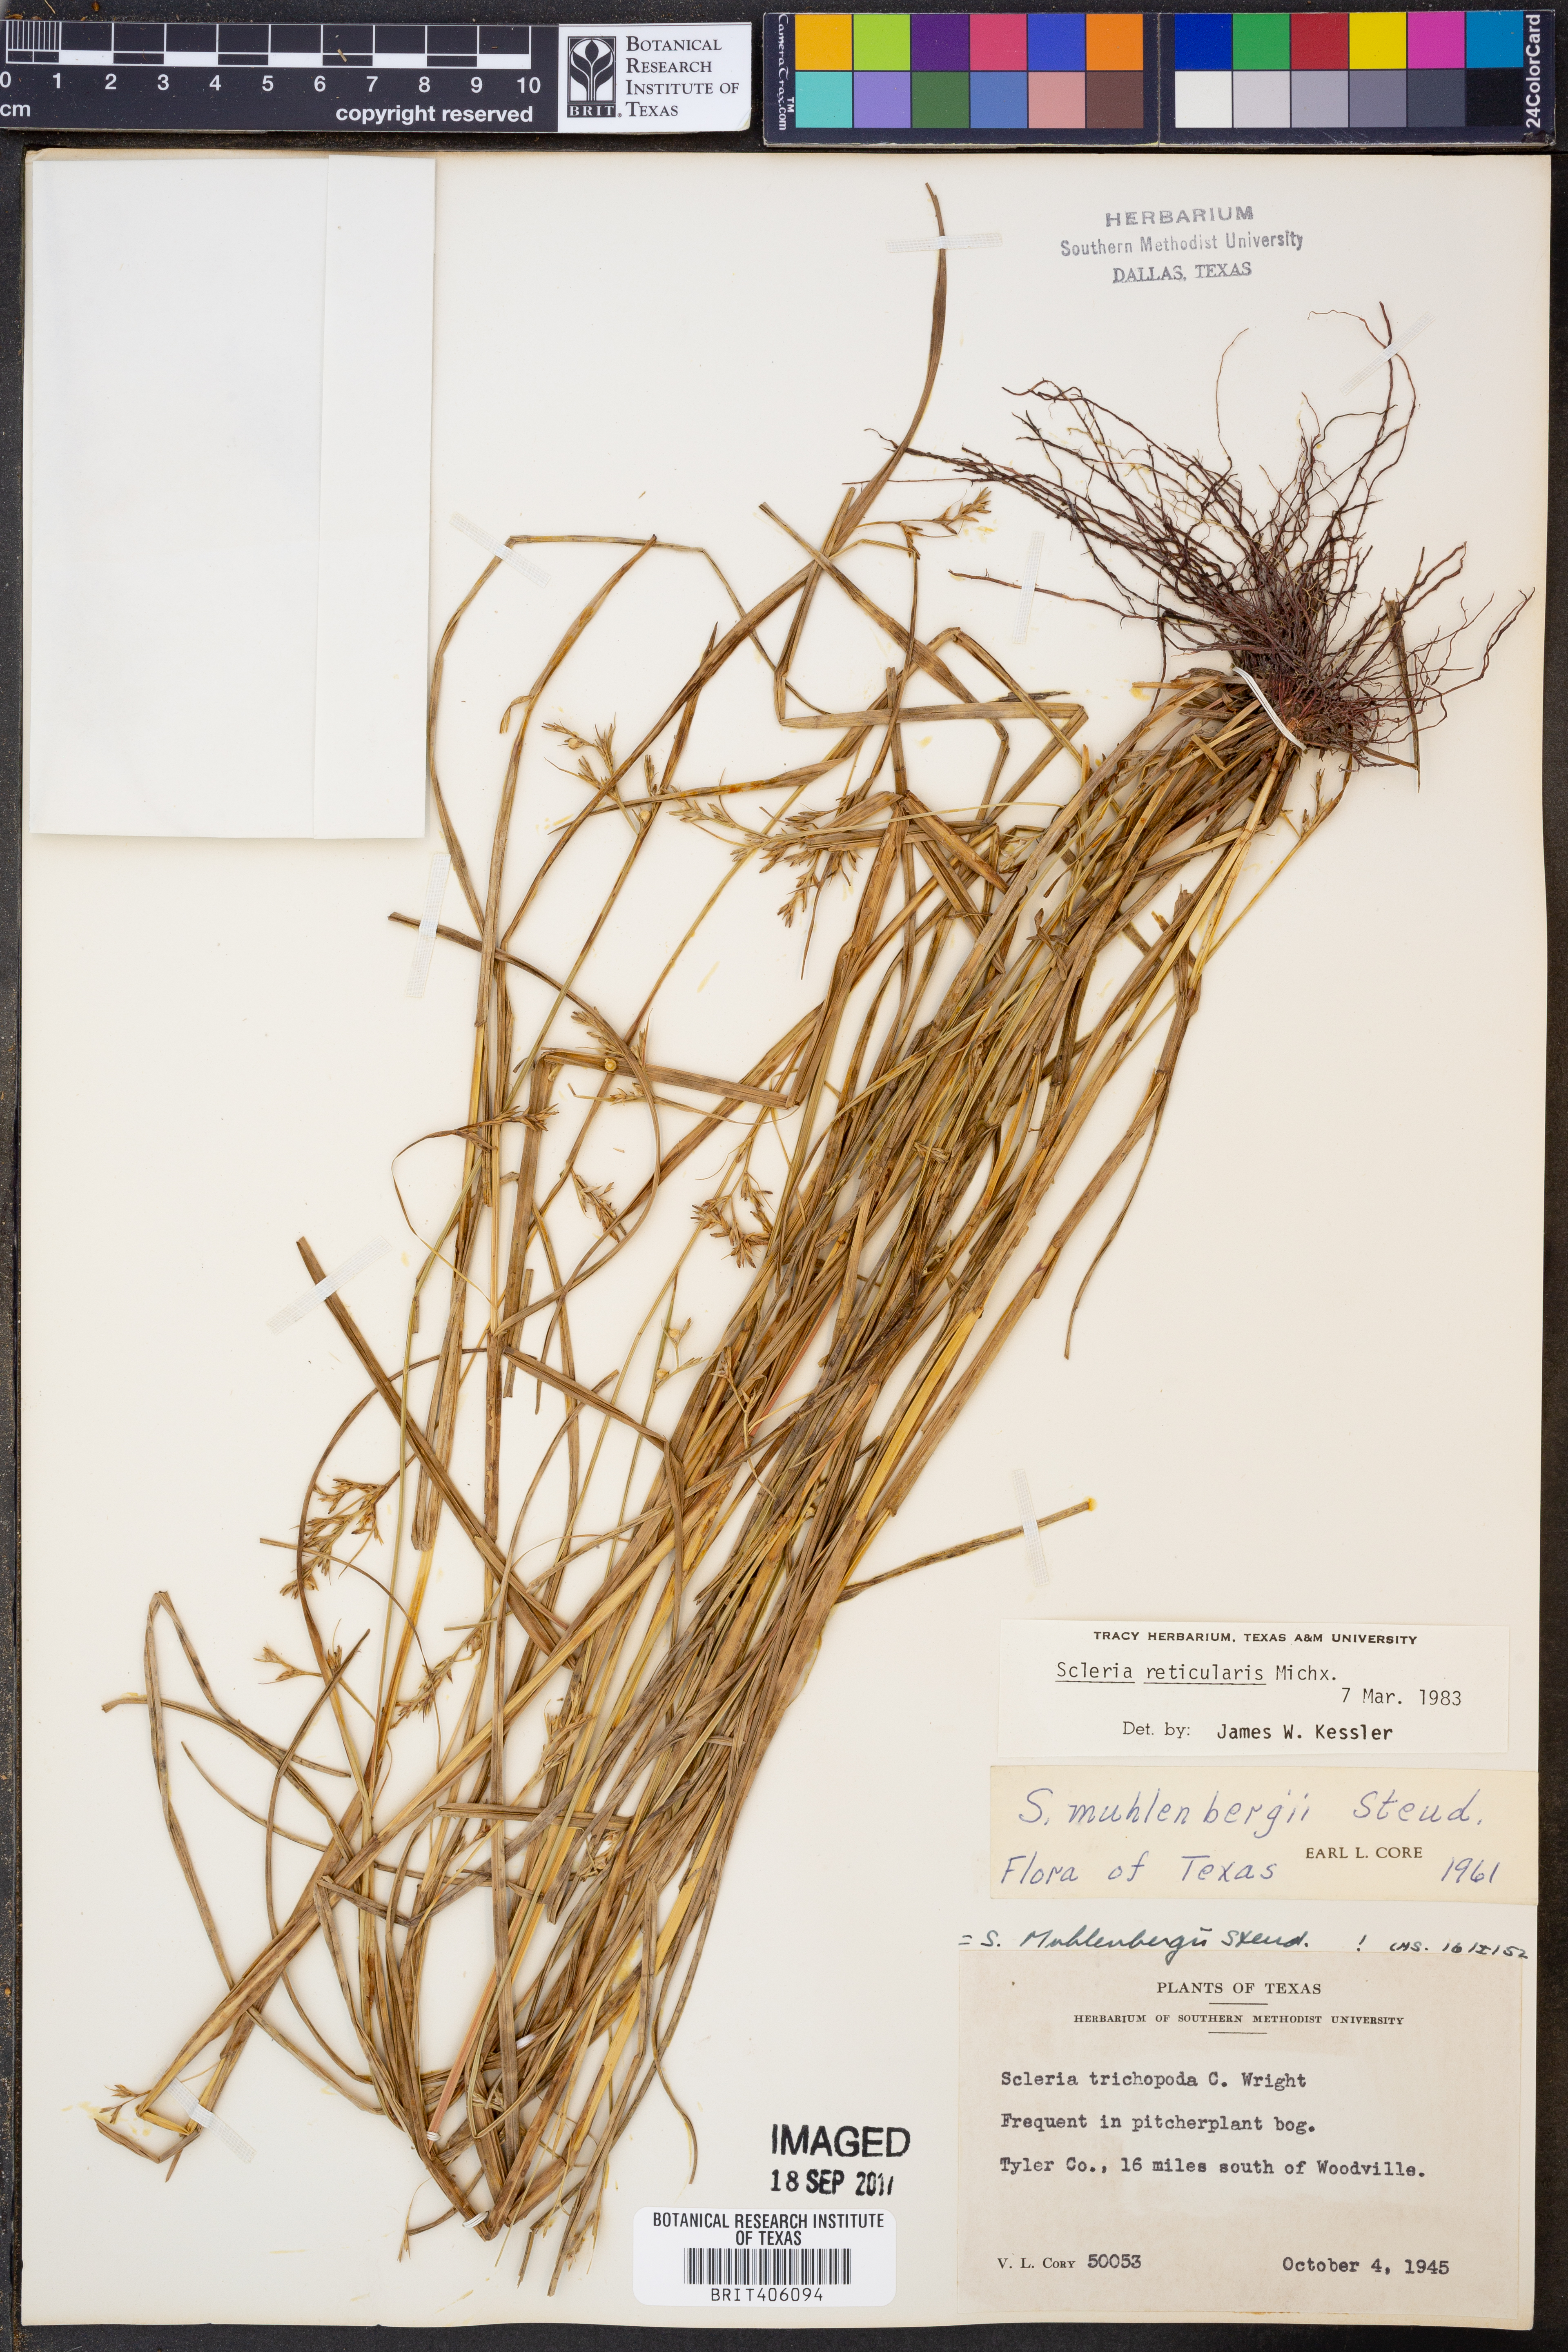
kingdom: Plantae
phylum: Tracheophyta
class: Liliopsida
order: Poales
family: Cyperaceae
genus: Scleria
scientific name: Scleria reticularis
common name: Netted nutrush
